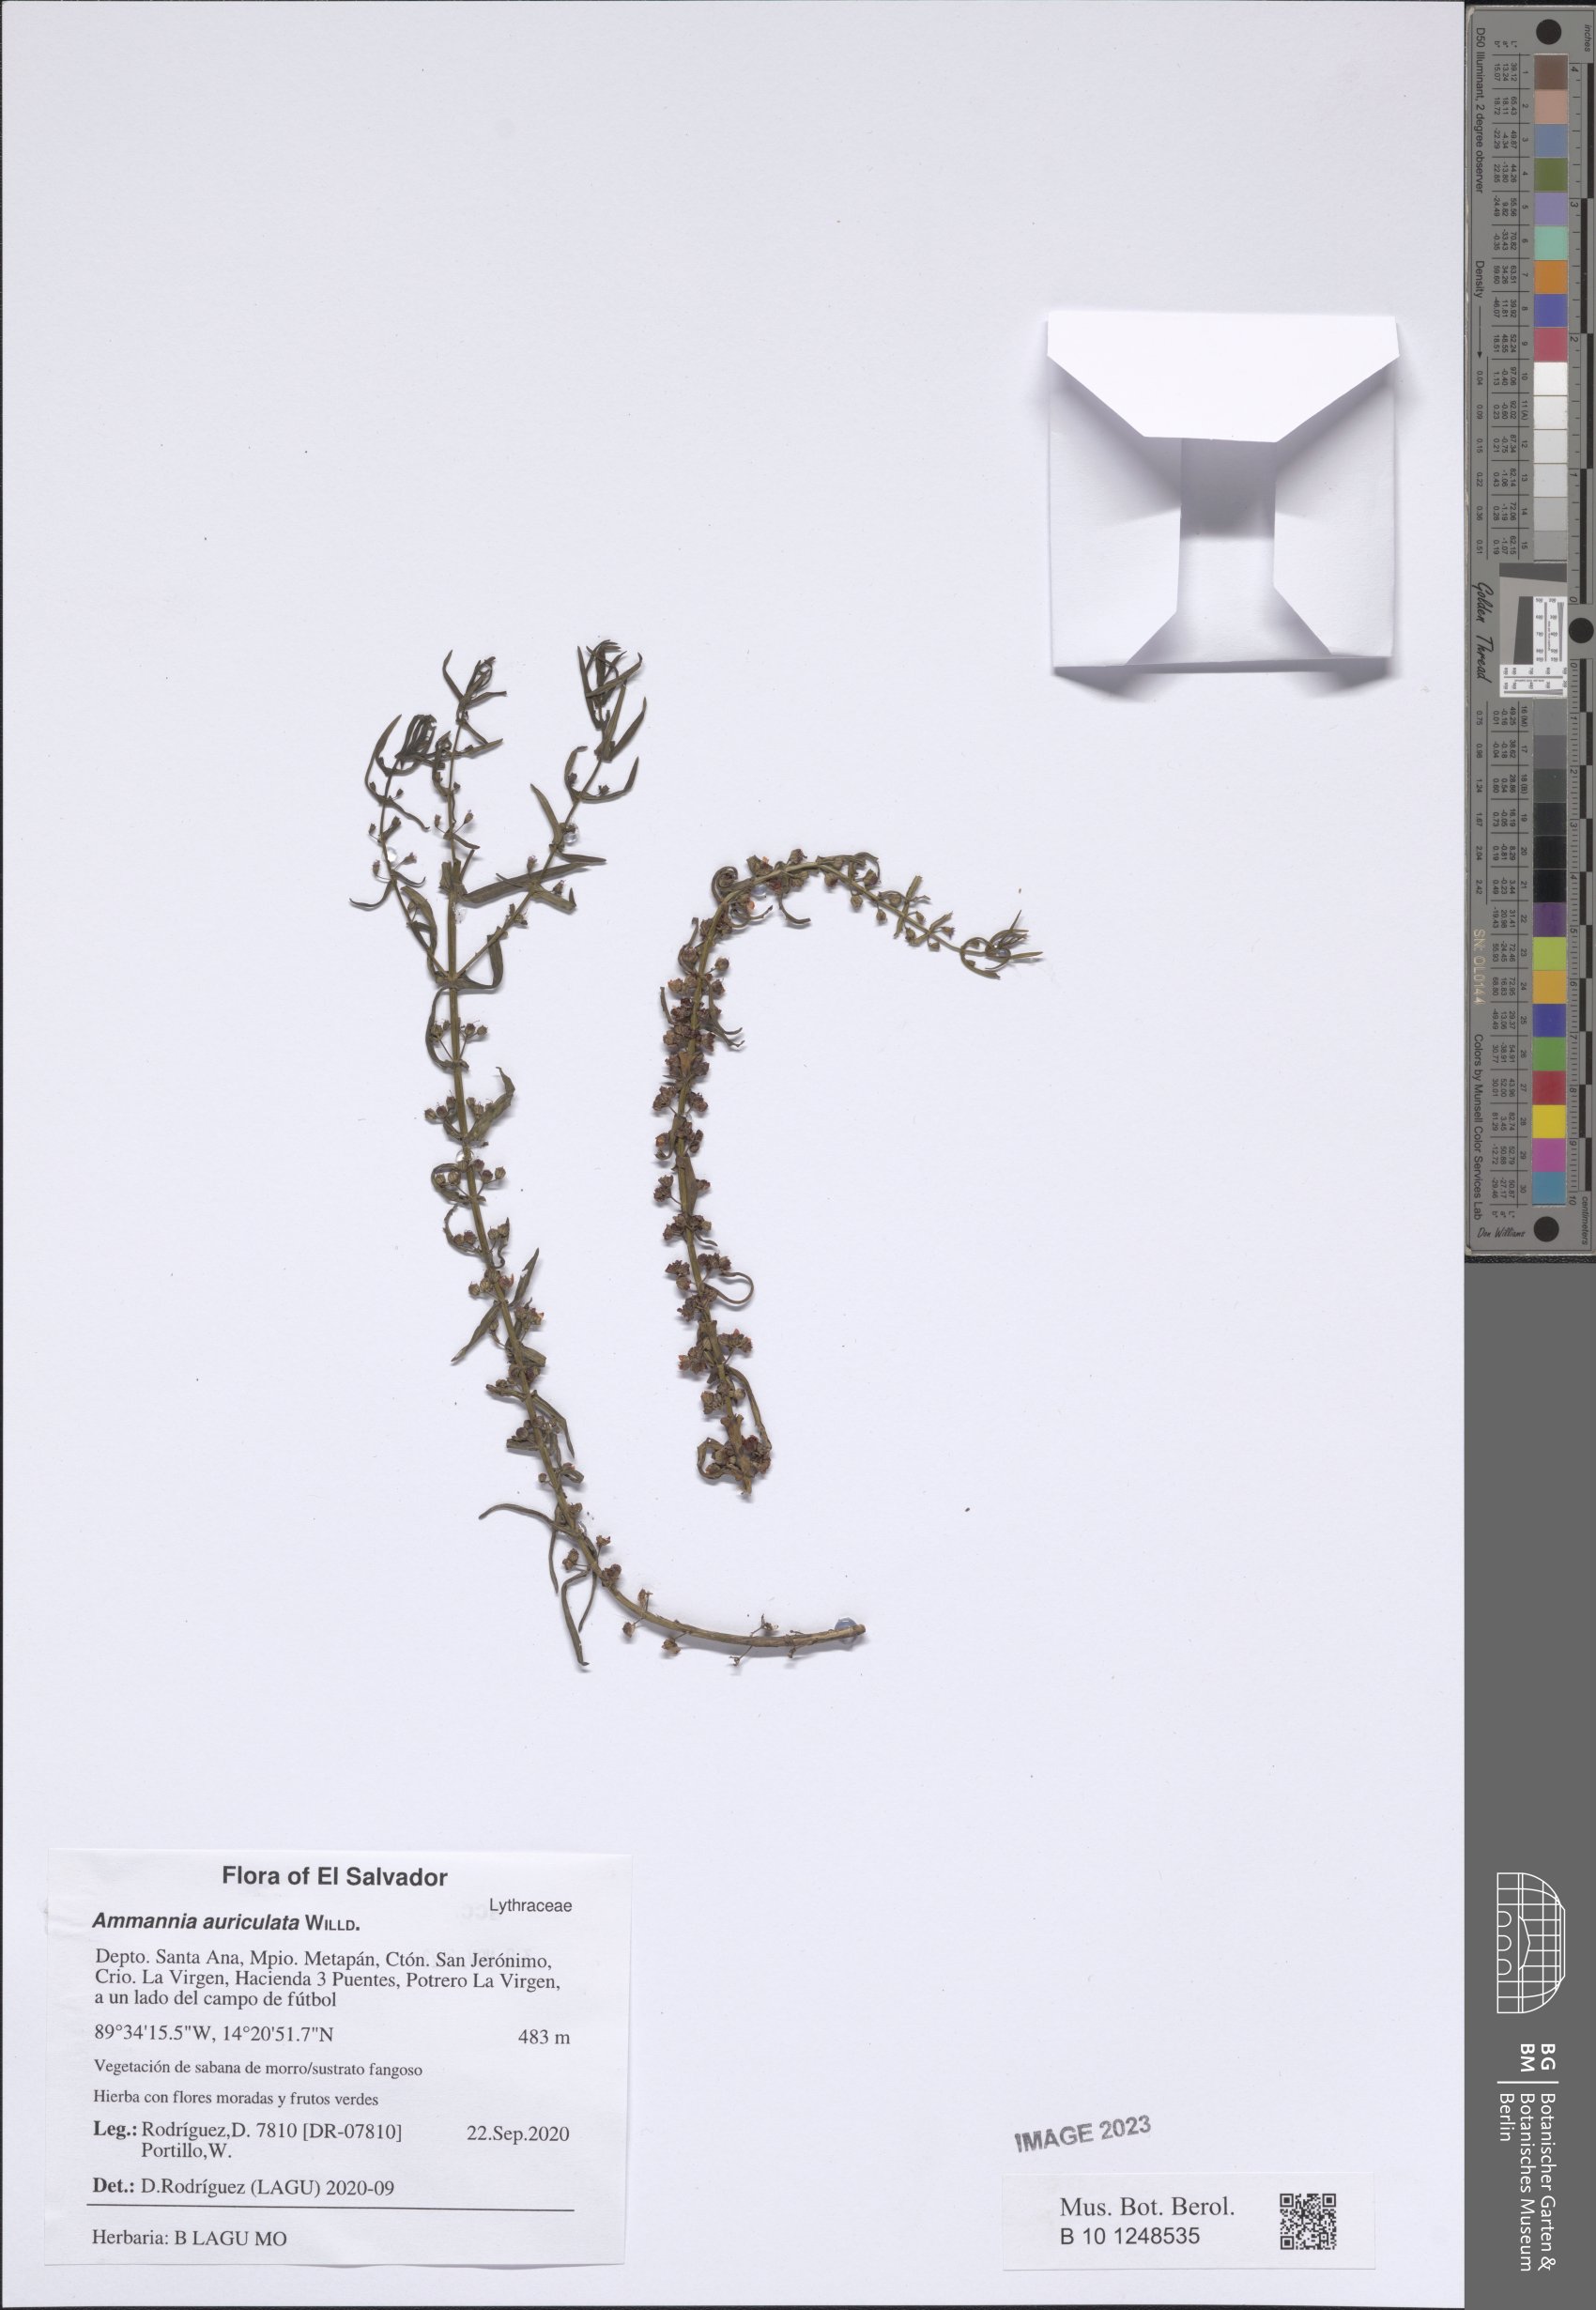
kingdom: Plantae
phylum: Tracheophyta
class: Magnoliopsida
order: Myrtales
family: Lythraceae
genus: Ammannia
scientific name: Ammannia auriculata
